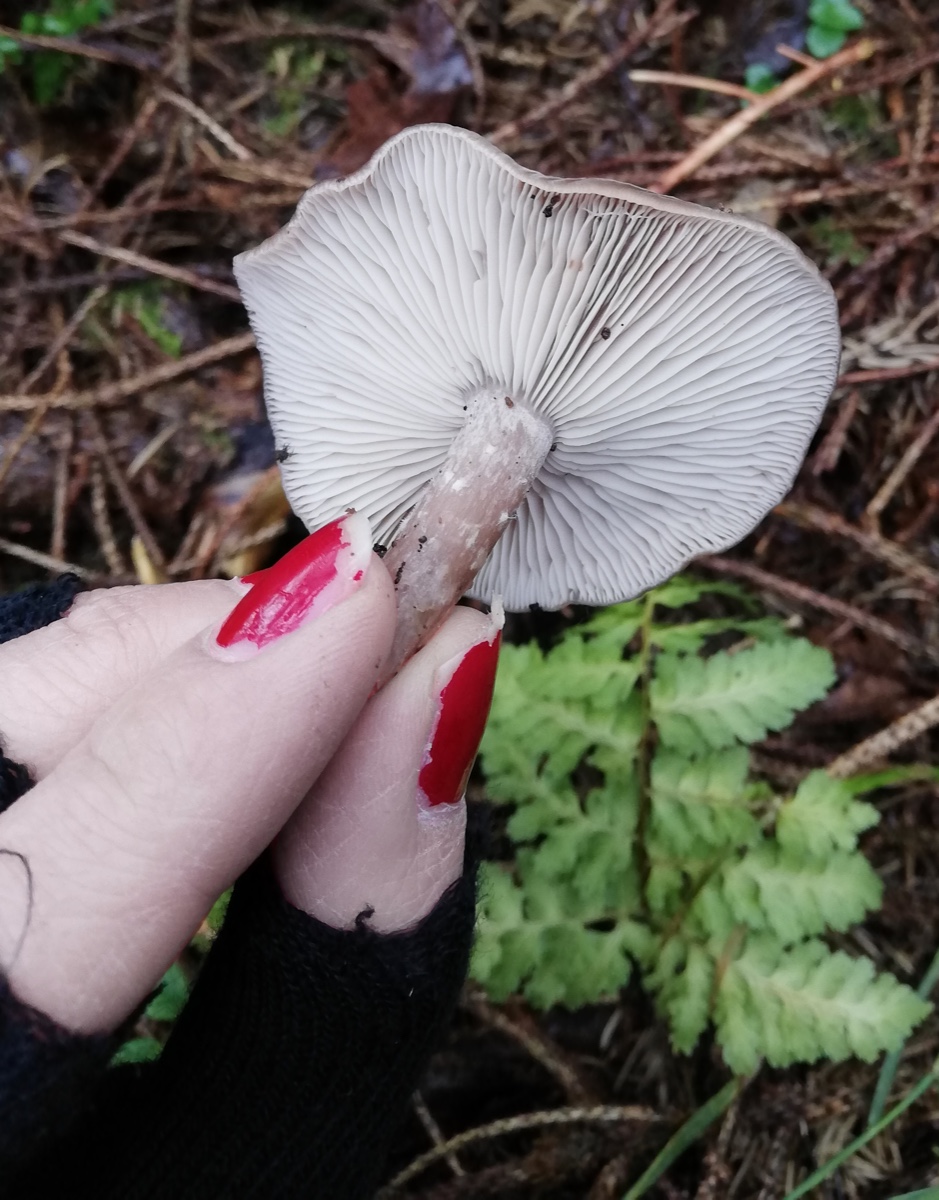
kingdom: Fungi
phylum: Basidiomycota
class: Agaricomycetes
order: Agaricales
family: Tricholomataceae
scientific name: Tricholomataceae
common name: ridderhatfamilien
